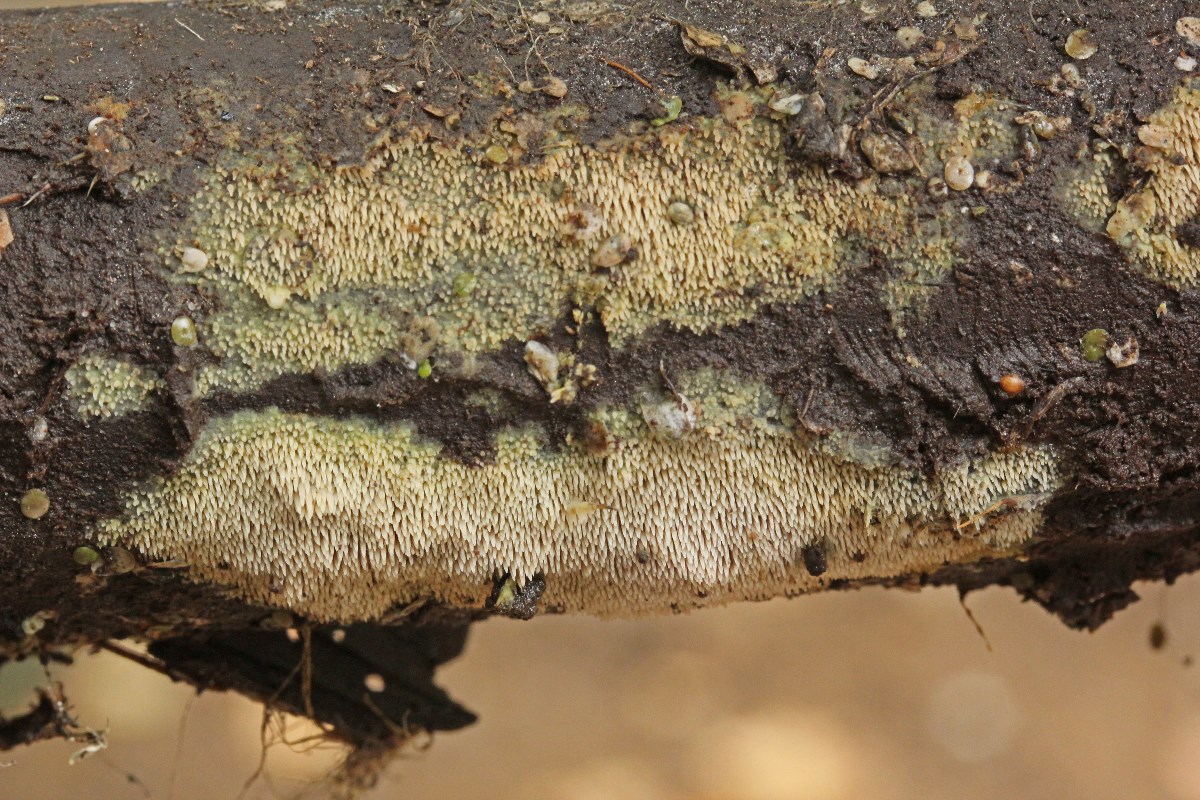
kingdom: Fungi
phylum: Basidiomycota
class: Agaricomycetes
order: Polyporales
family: Meruliaceae
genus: Mycoacia
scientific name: Mycoacia uda
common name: citrongul vokspig
